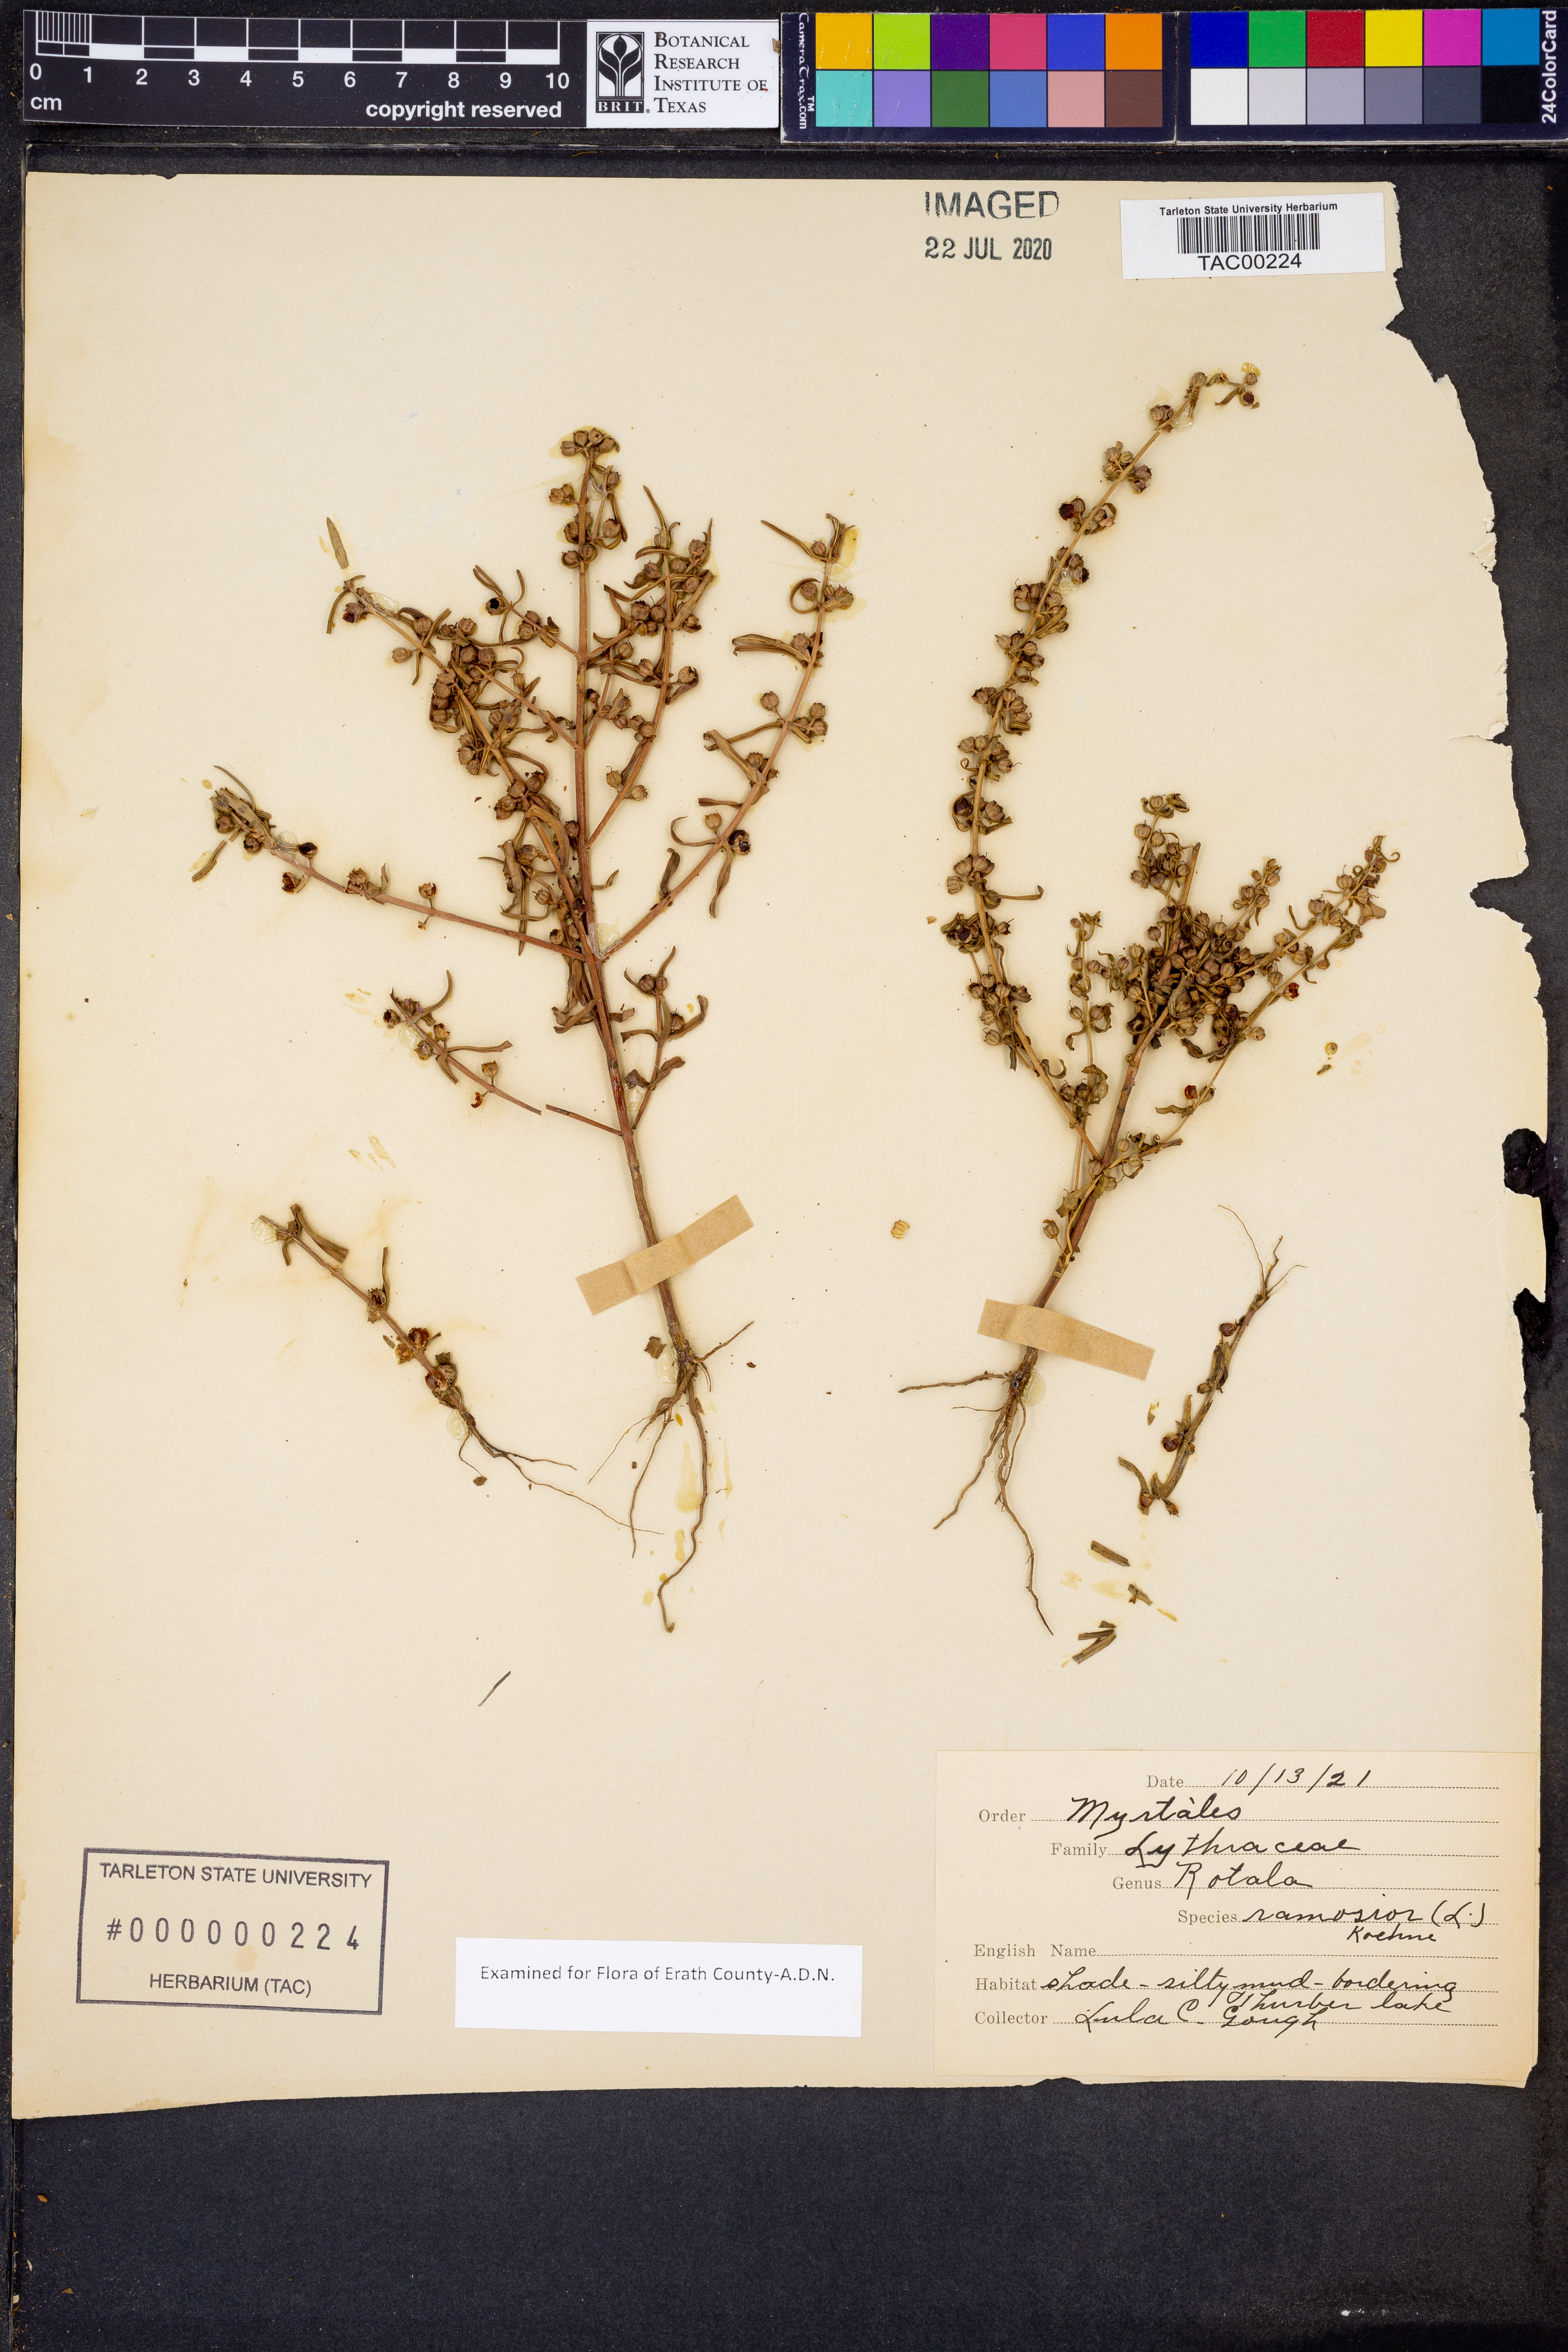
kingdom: Plantae
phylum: Tracheophyta
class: Magnoliopsida
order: Myrtales
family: Lythraceae
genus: Rotala
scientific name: Rotala ramosior
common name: Lowland rotala
